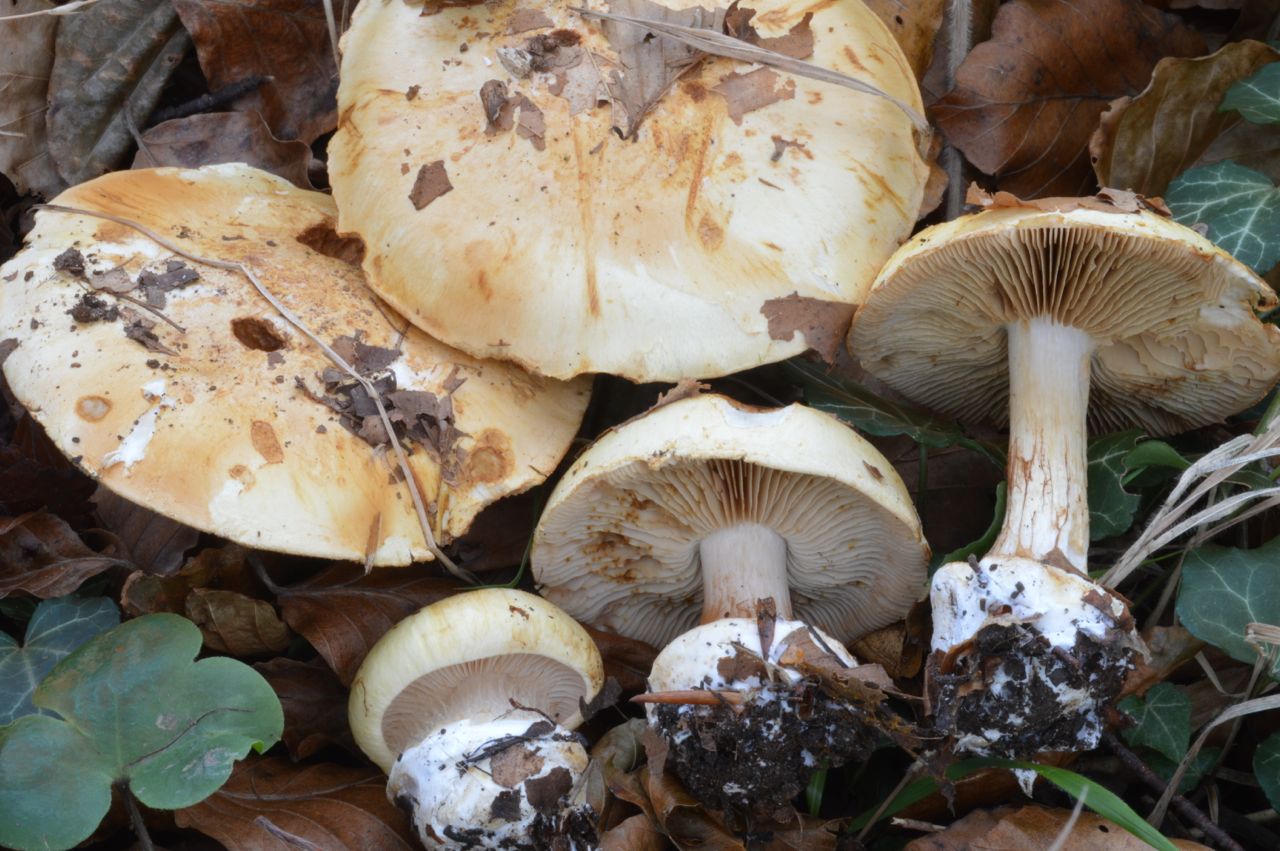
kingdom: Fungi
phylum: Basidiomycota
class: Agaricomycetes
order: Agaricales
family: Cortinariaceae
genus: Calonarius
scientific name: Calonarius osmophorus
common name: duft-slørhat
